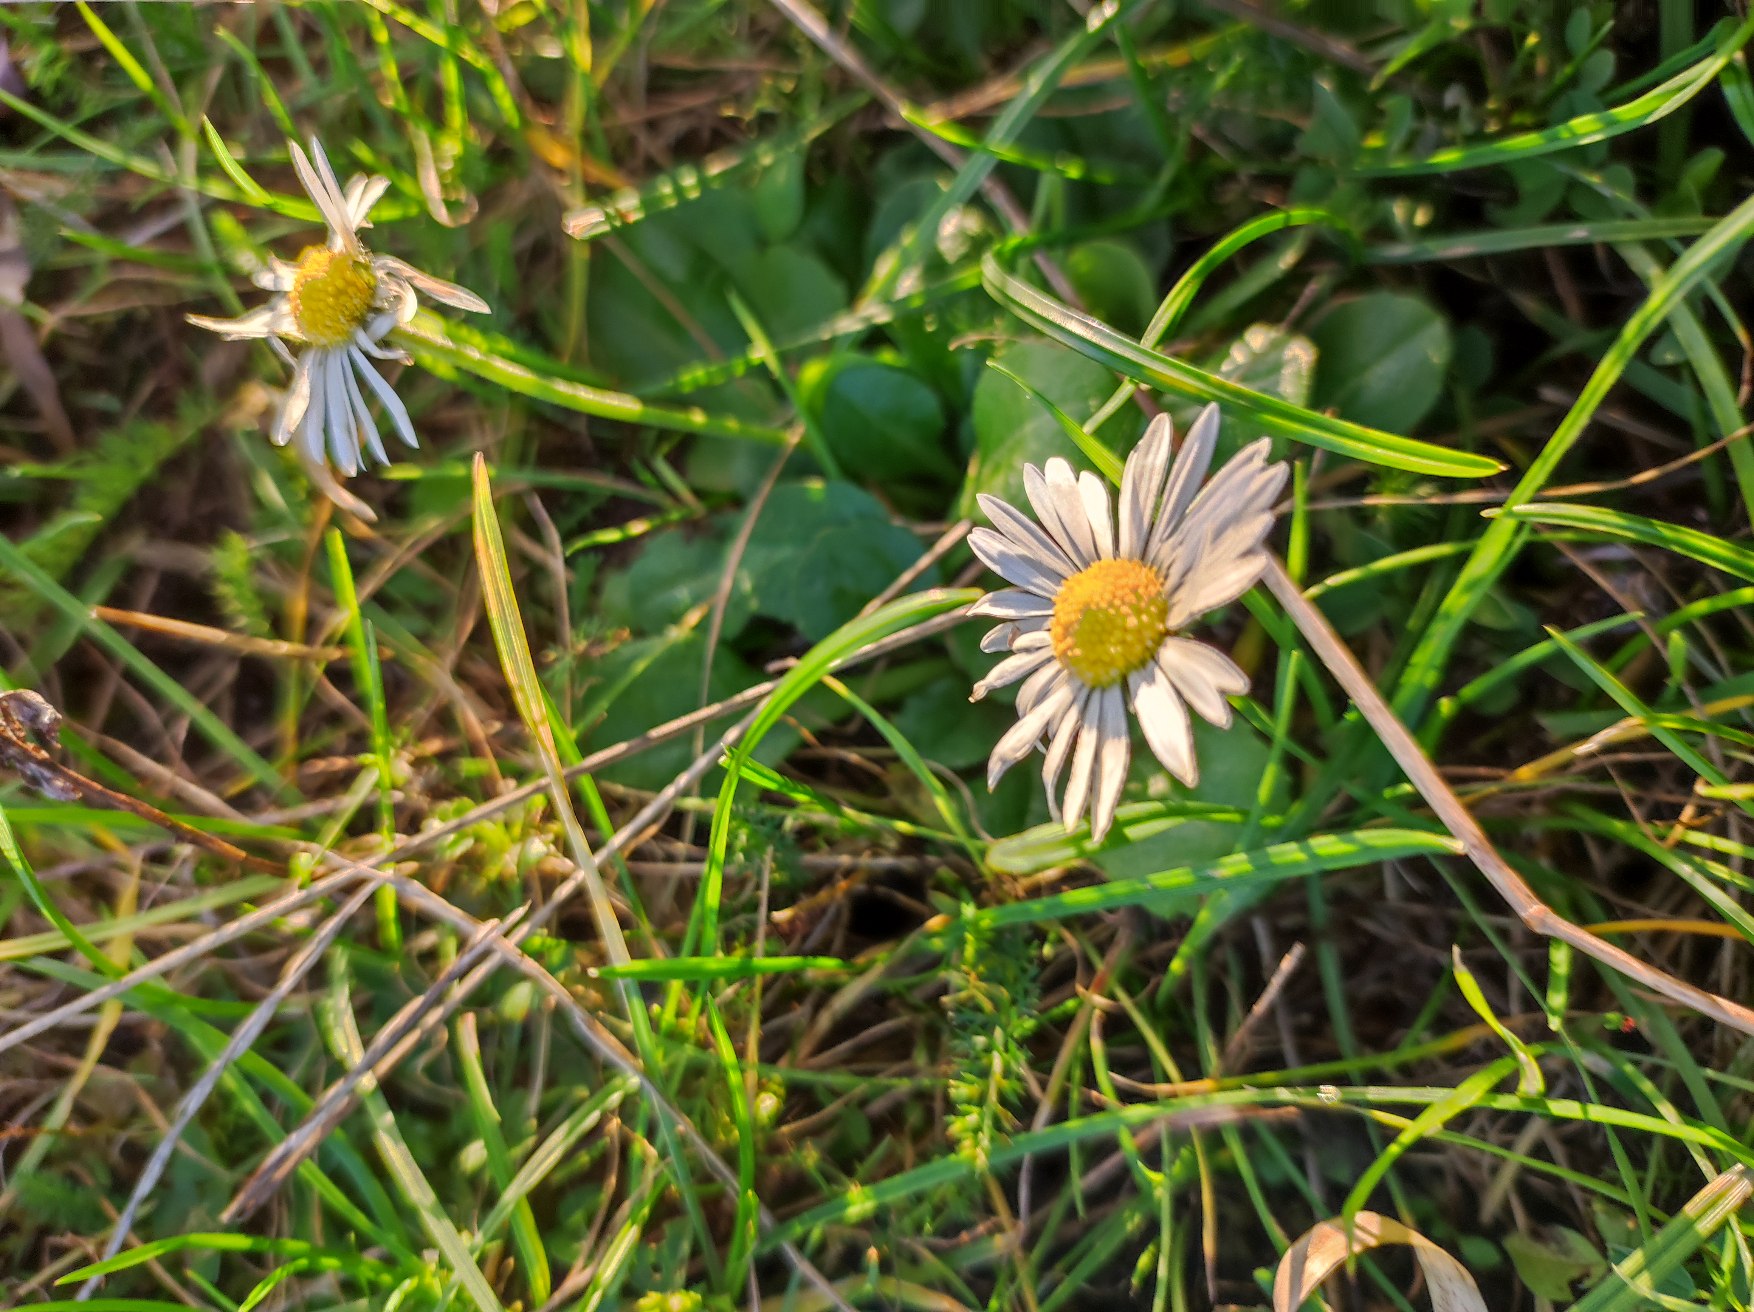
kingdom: Plantae
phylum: Tracheophyta
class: Magnoliopsida
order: Asterales
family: Asteraceae
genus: Bellis
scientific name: Bellis perennis
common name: Tusindfryd
